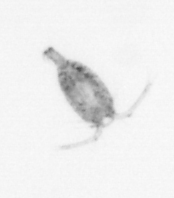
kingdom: Animalia
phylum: Arthropoda
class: Copepoda
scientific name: Copepoda
